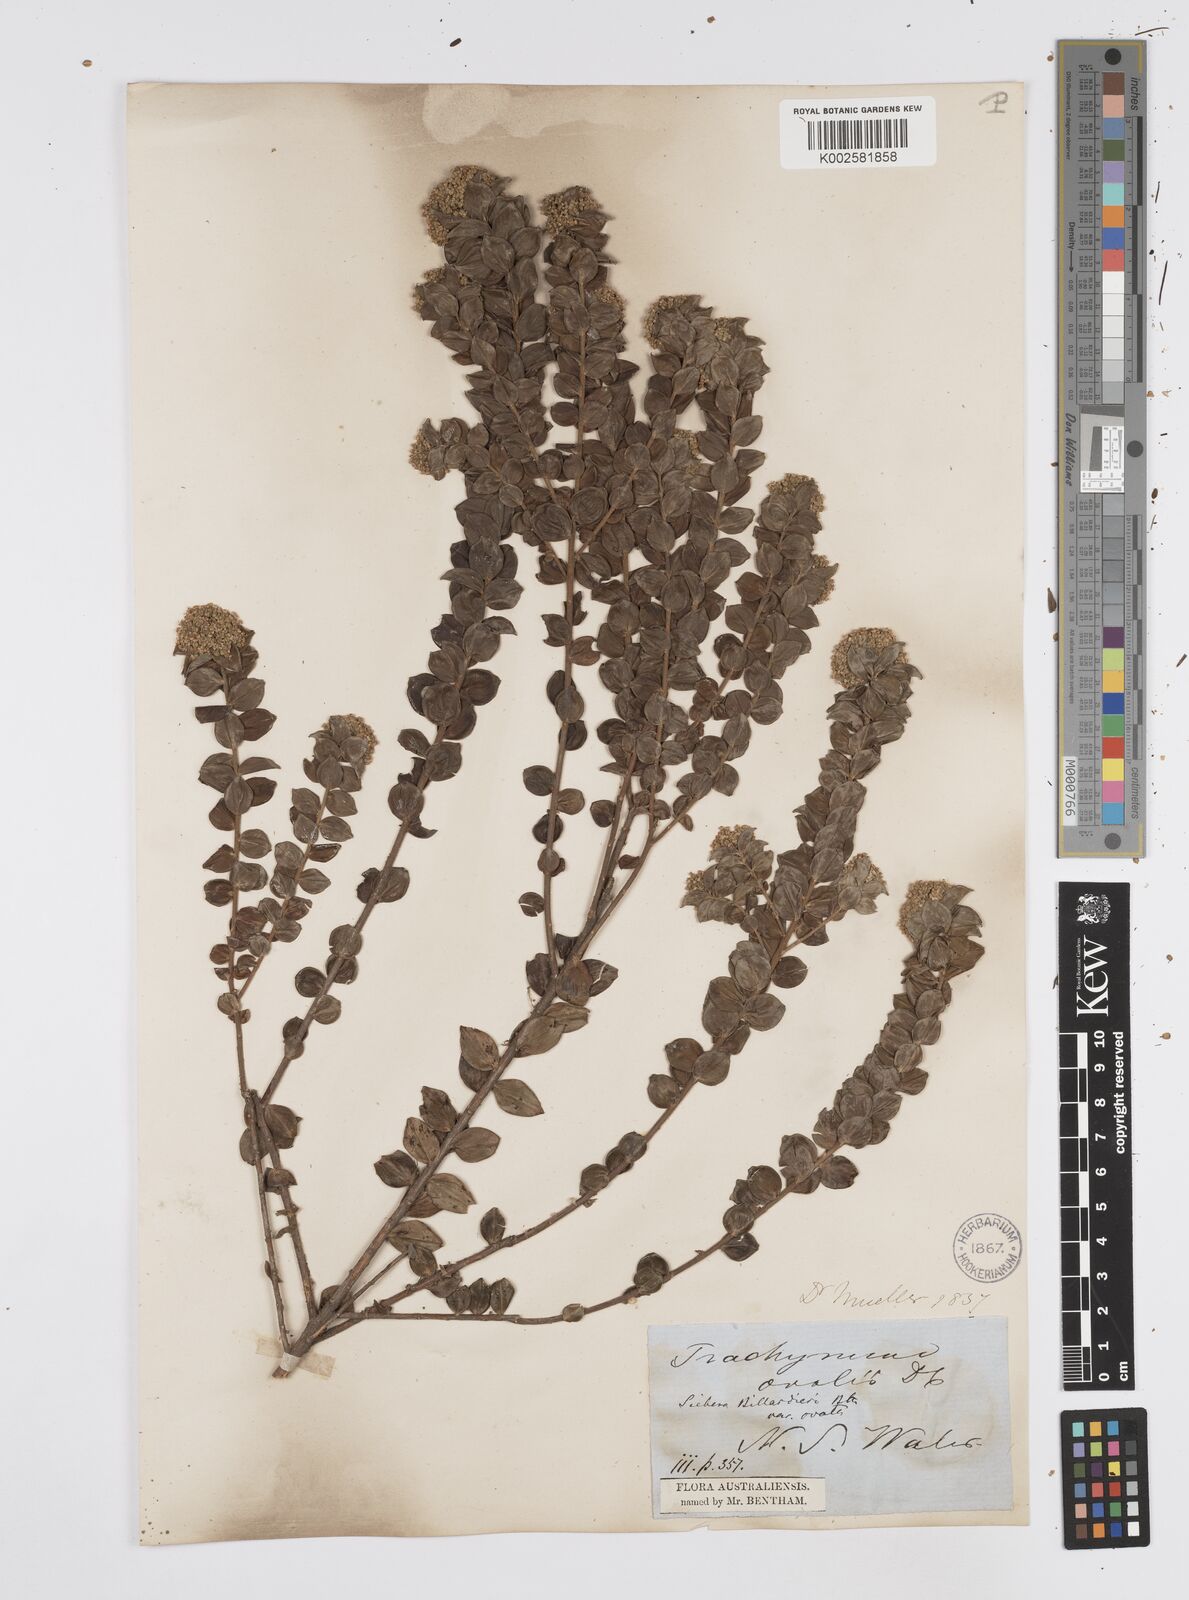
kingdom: Plantae
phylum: Tracheophyta
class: Magnoliopsida
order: Apiales
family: Apiaceae
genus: Platysace
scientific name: Platysace lanceolata
